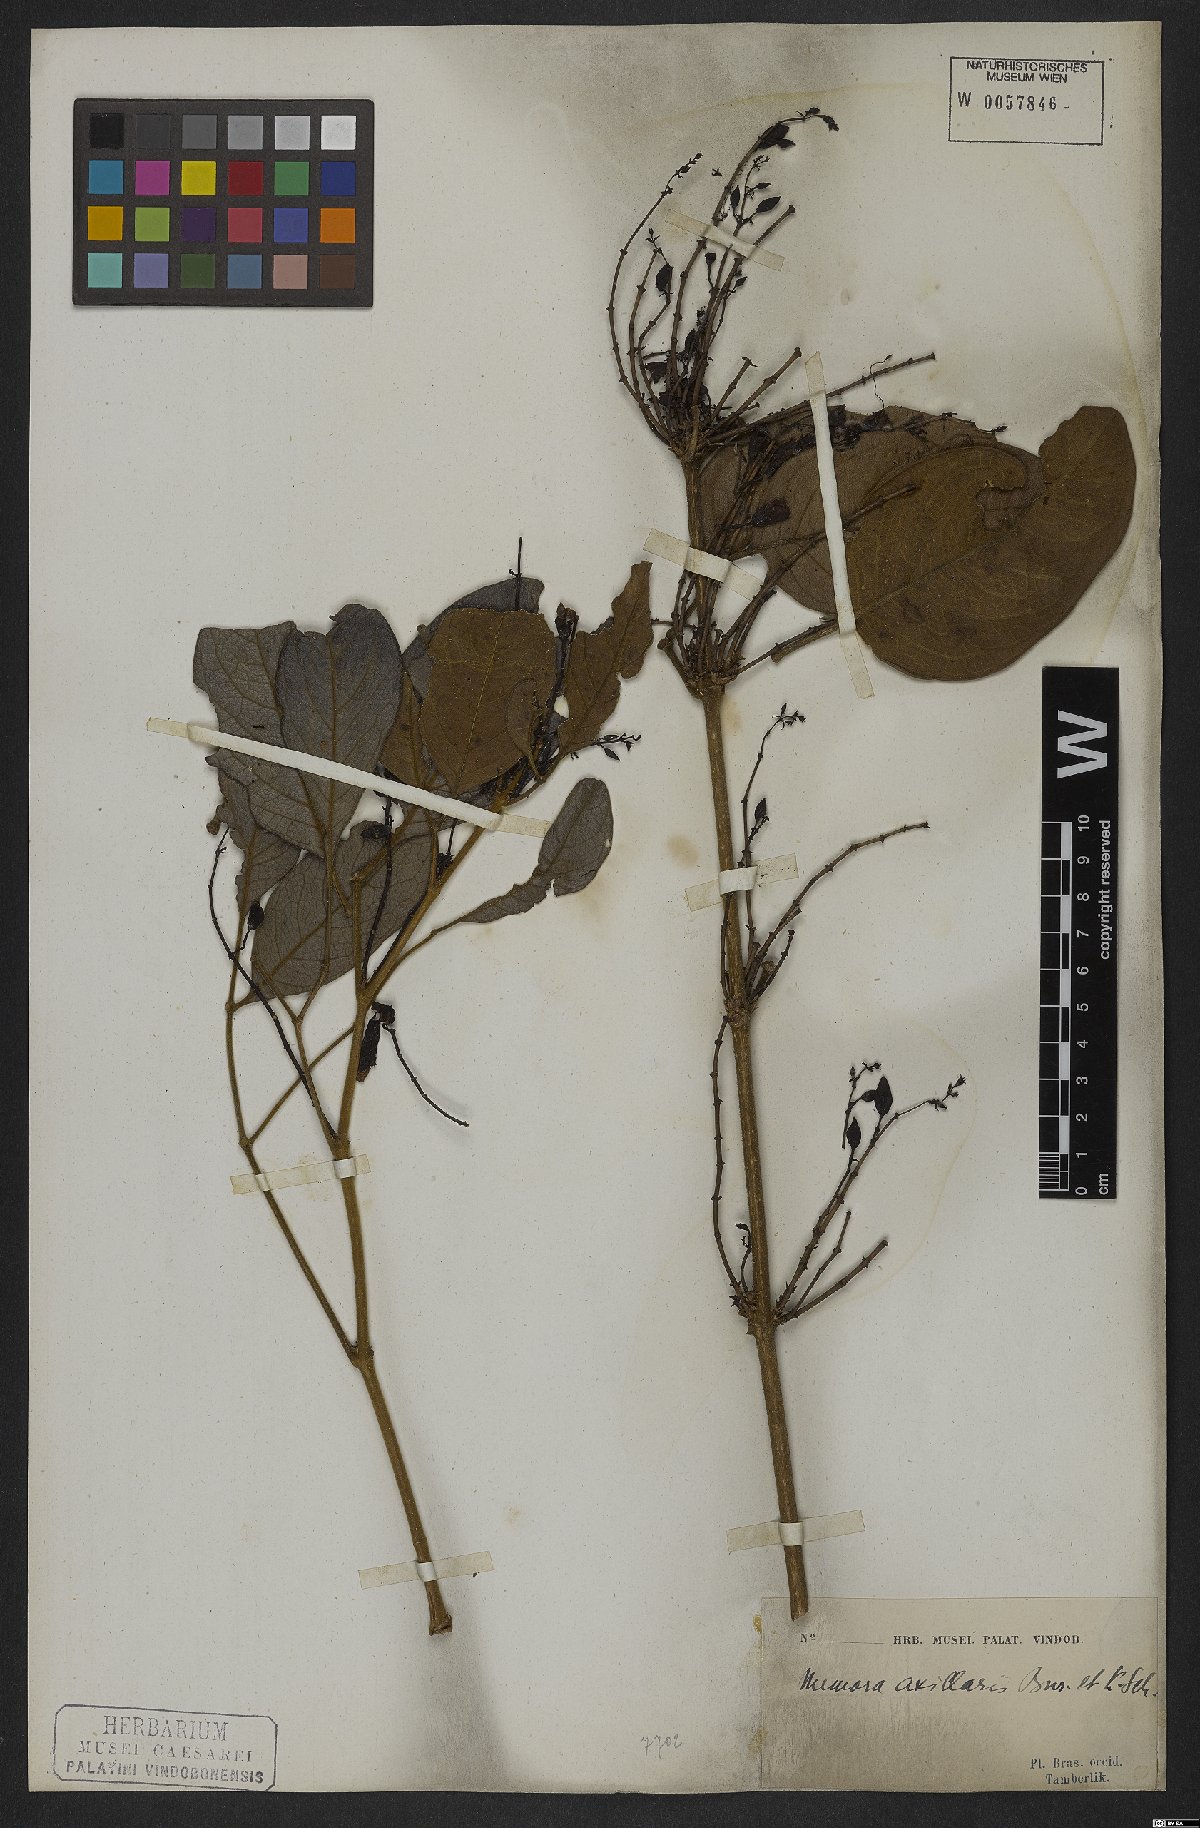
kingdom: Plantae
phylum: Tracheophyta
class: Magnoliopsida
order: Lamiales
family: Bignoniaceae
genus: Adenocalymma
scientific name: Adenocalymma axillare
